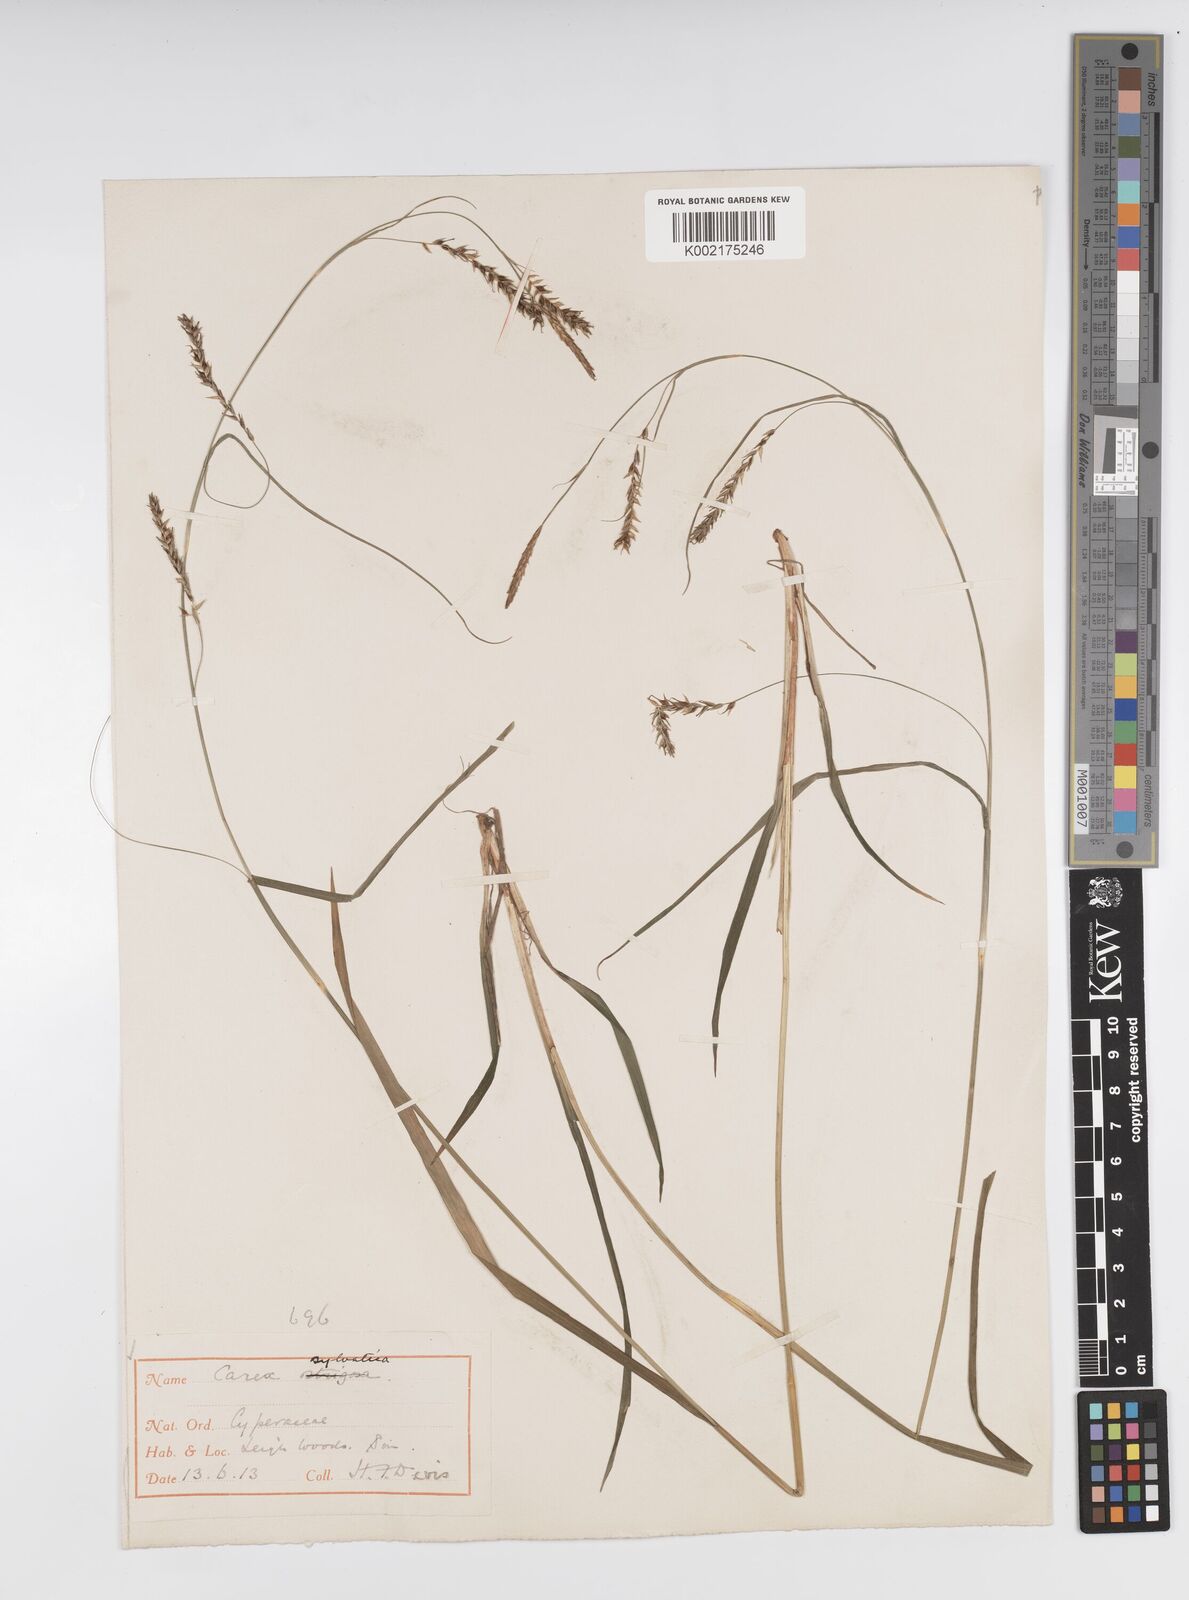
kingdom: Plantae
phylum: Tracheophyta
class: Liliopsida
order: Poales
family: Cyperaceae
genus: Carex
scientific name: Carex sylvatica
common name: Wood-sedge
